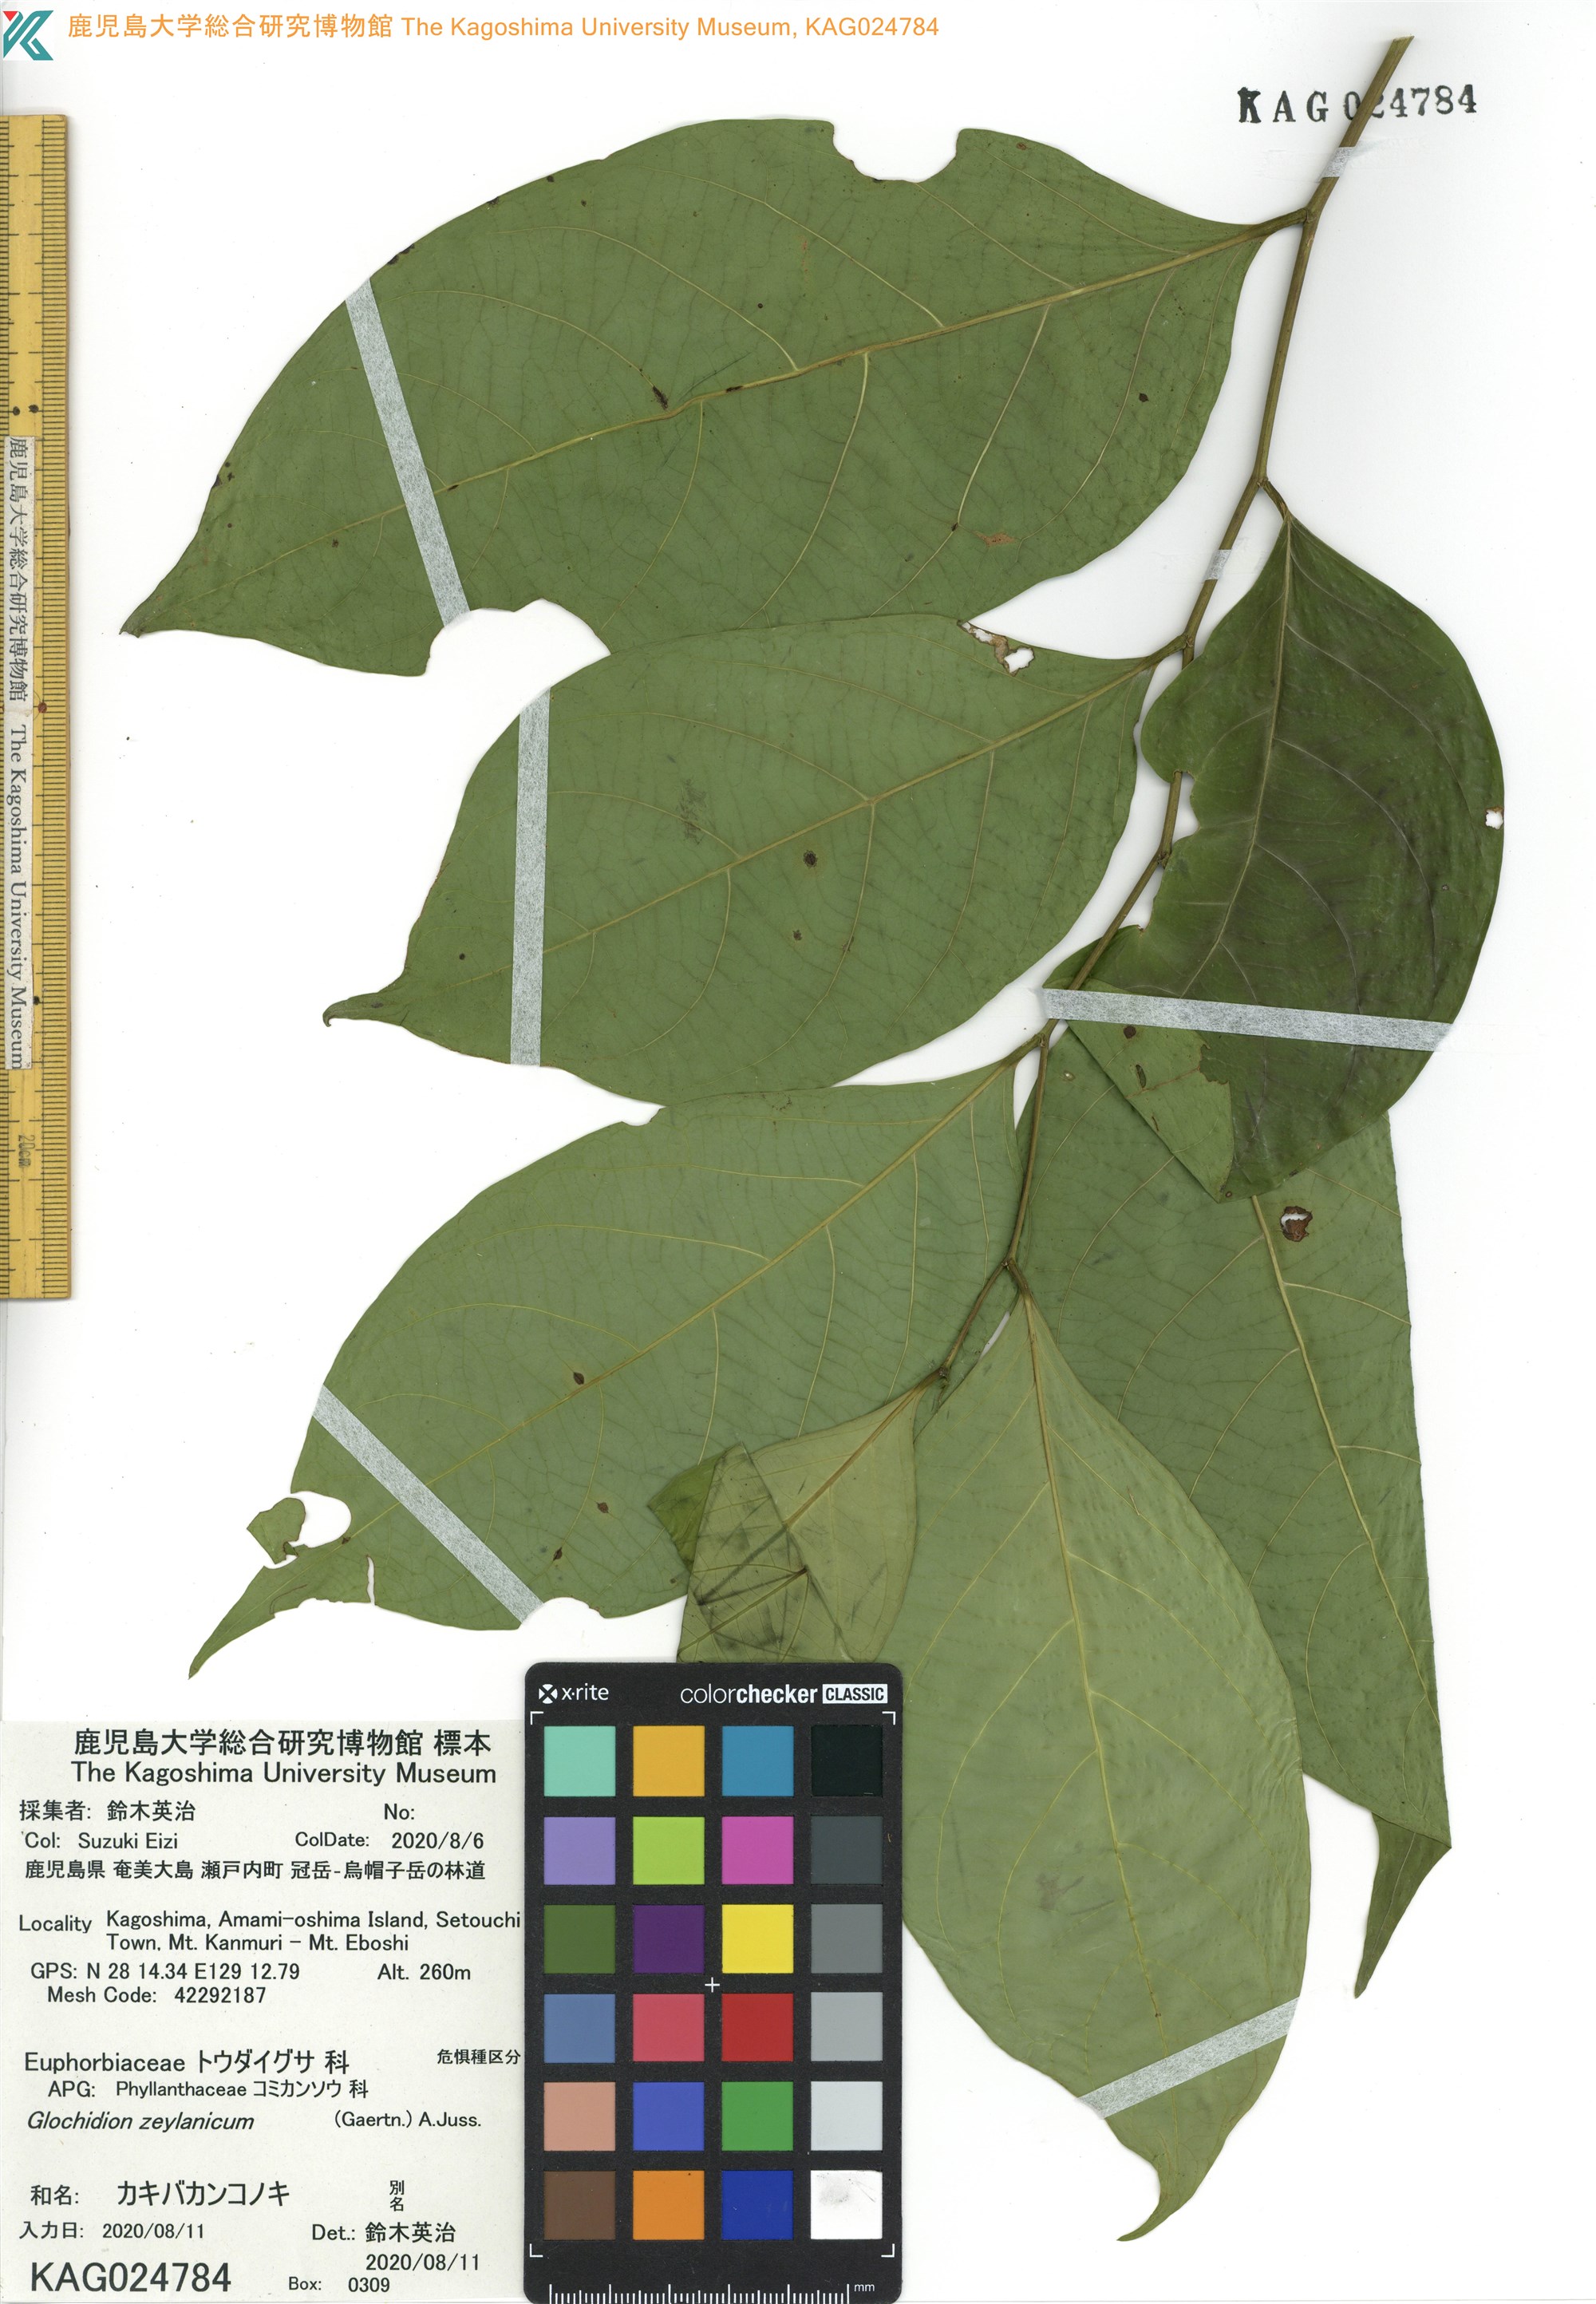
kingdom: Plantae
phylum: Tracheophyta
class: Magnoliopsida
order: Malpighiales
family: Phyllanthaceae
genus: Glochidion
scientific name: Glochidion zeylanicum
